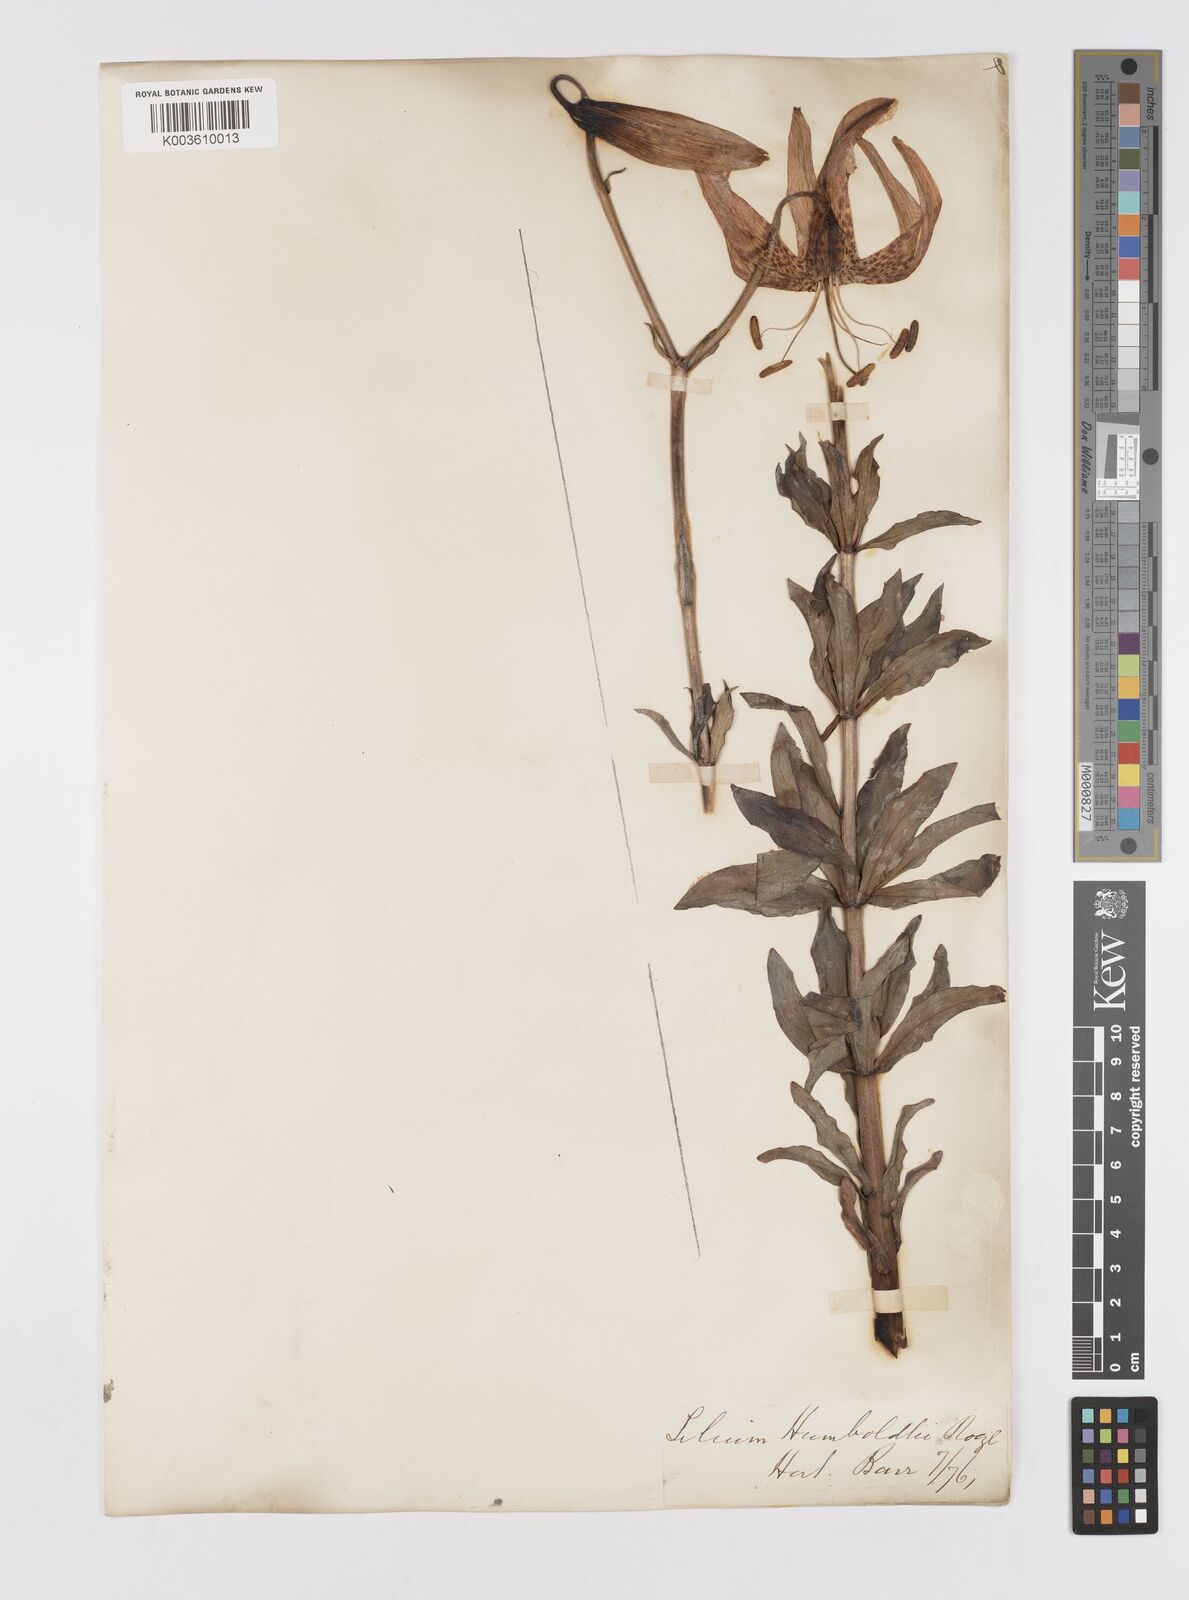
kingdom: Plantae
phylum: Tracheophyta
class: Liliopsida
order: Liliales
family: Liliaceae
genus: Lilium
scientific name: Lilium humboldtii
